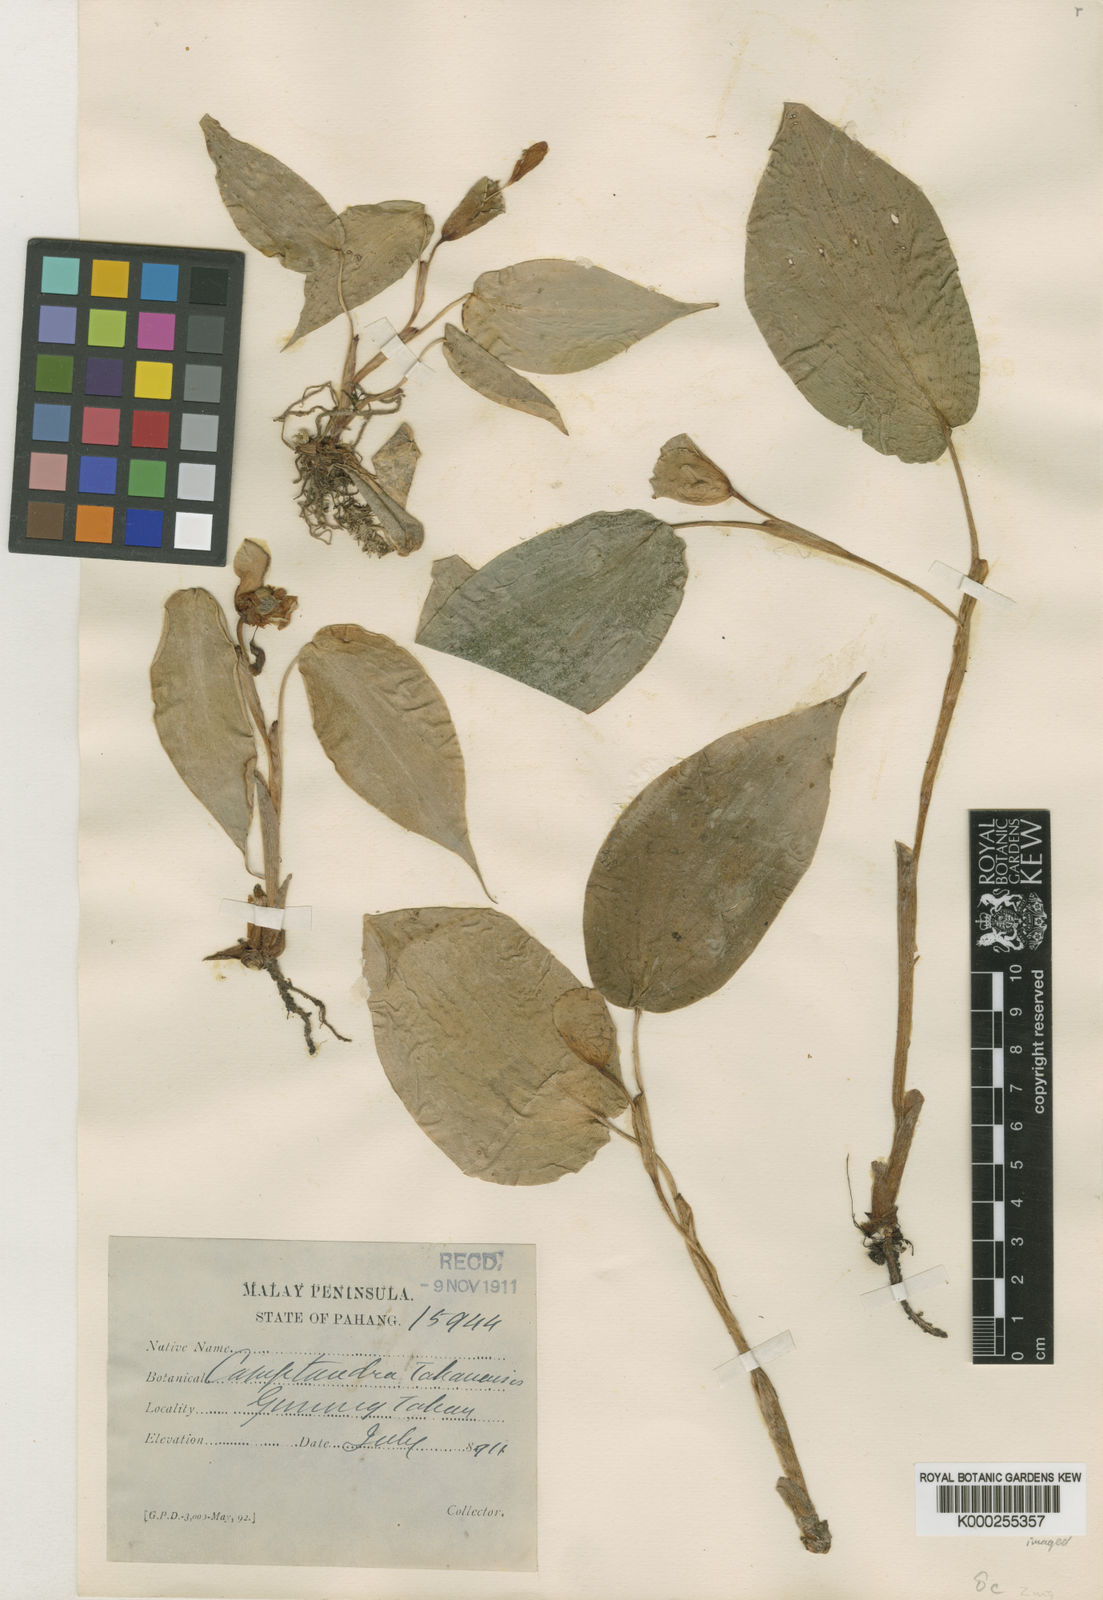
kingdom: Plantae
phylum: Tracheophyta
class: Liliopsida
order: Zingiberales
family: Zingiberaceae
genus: Camptandra
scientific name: Camptandra ovata
